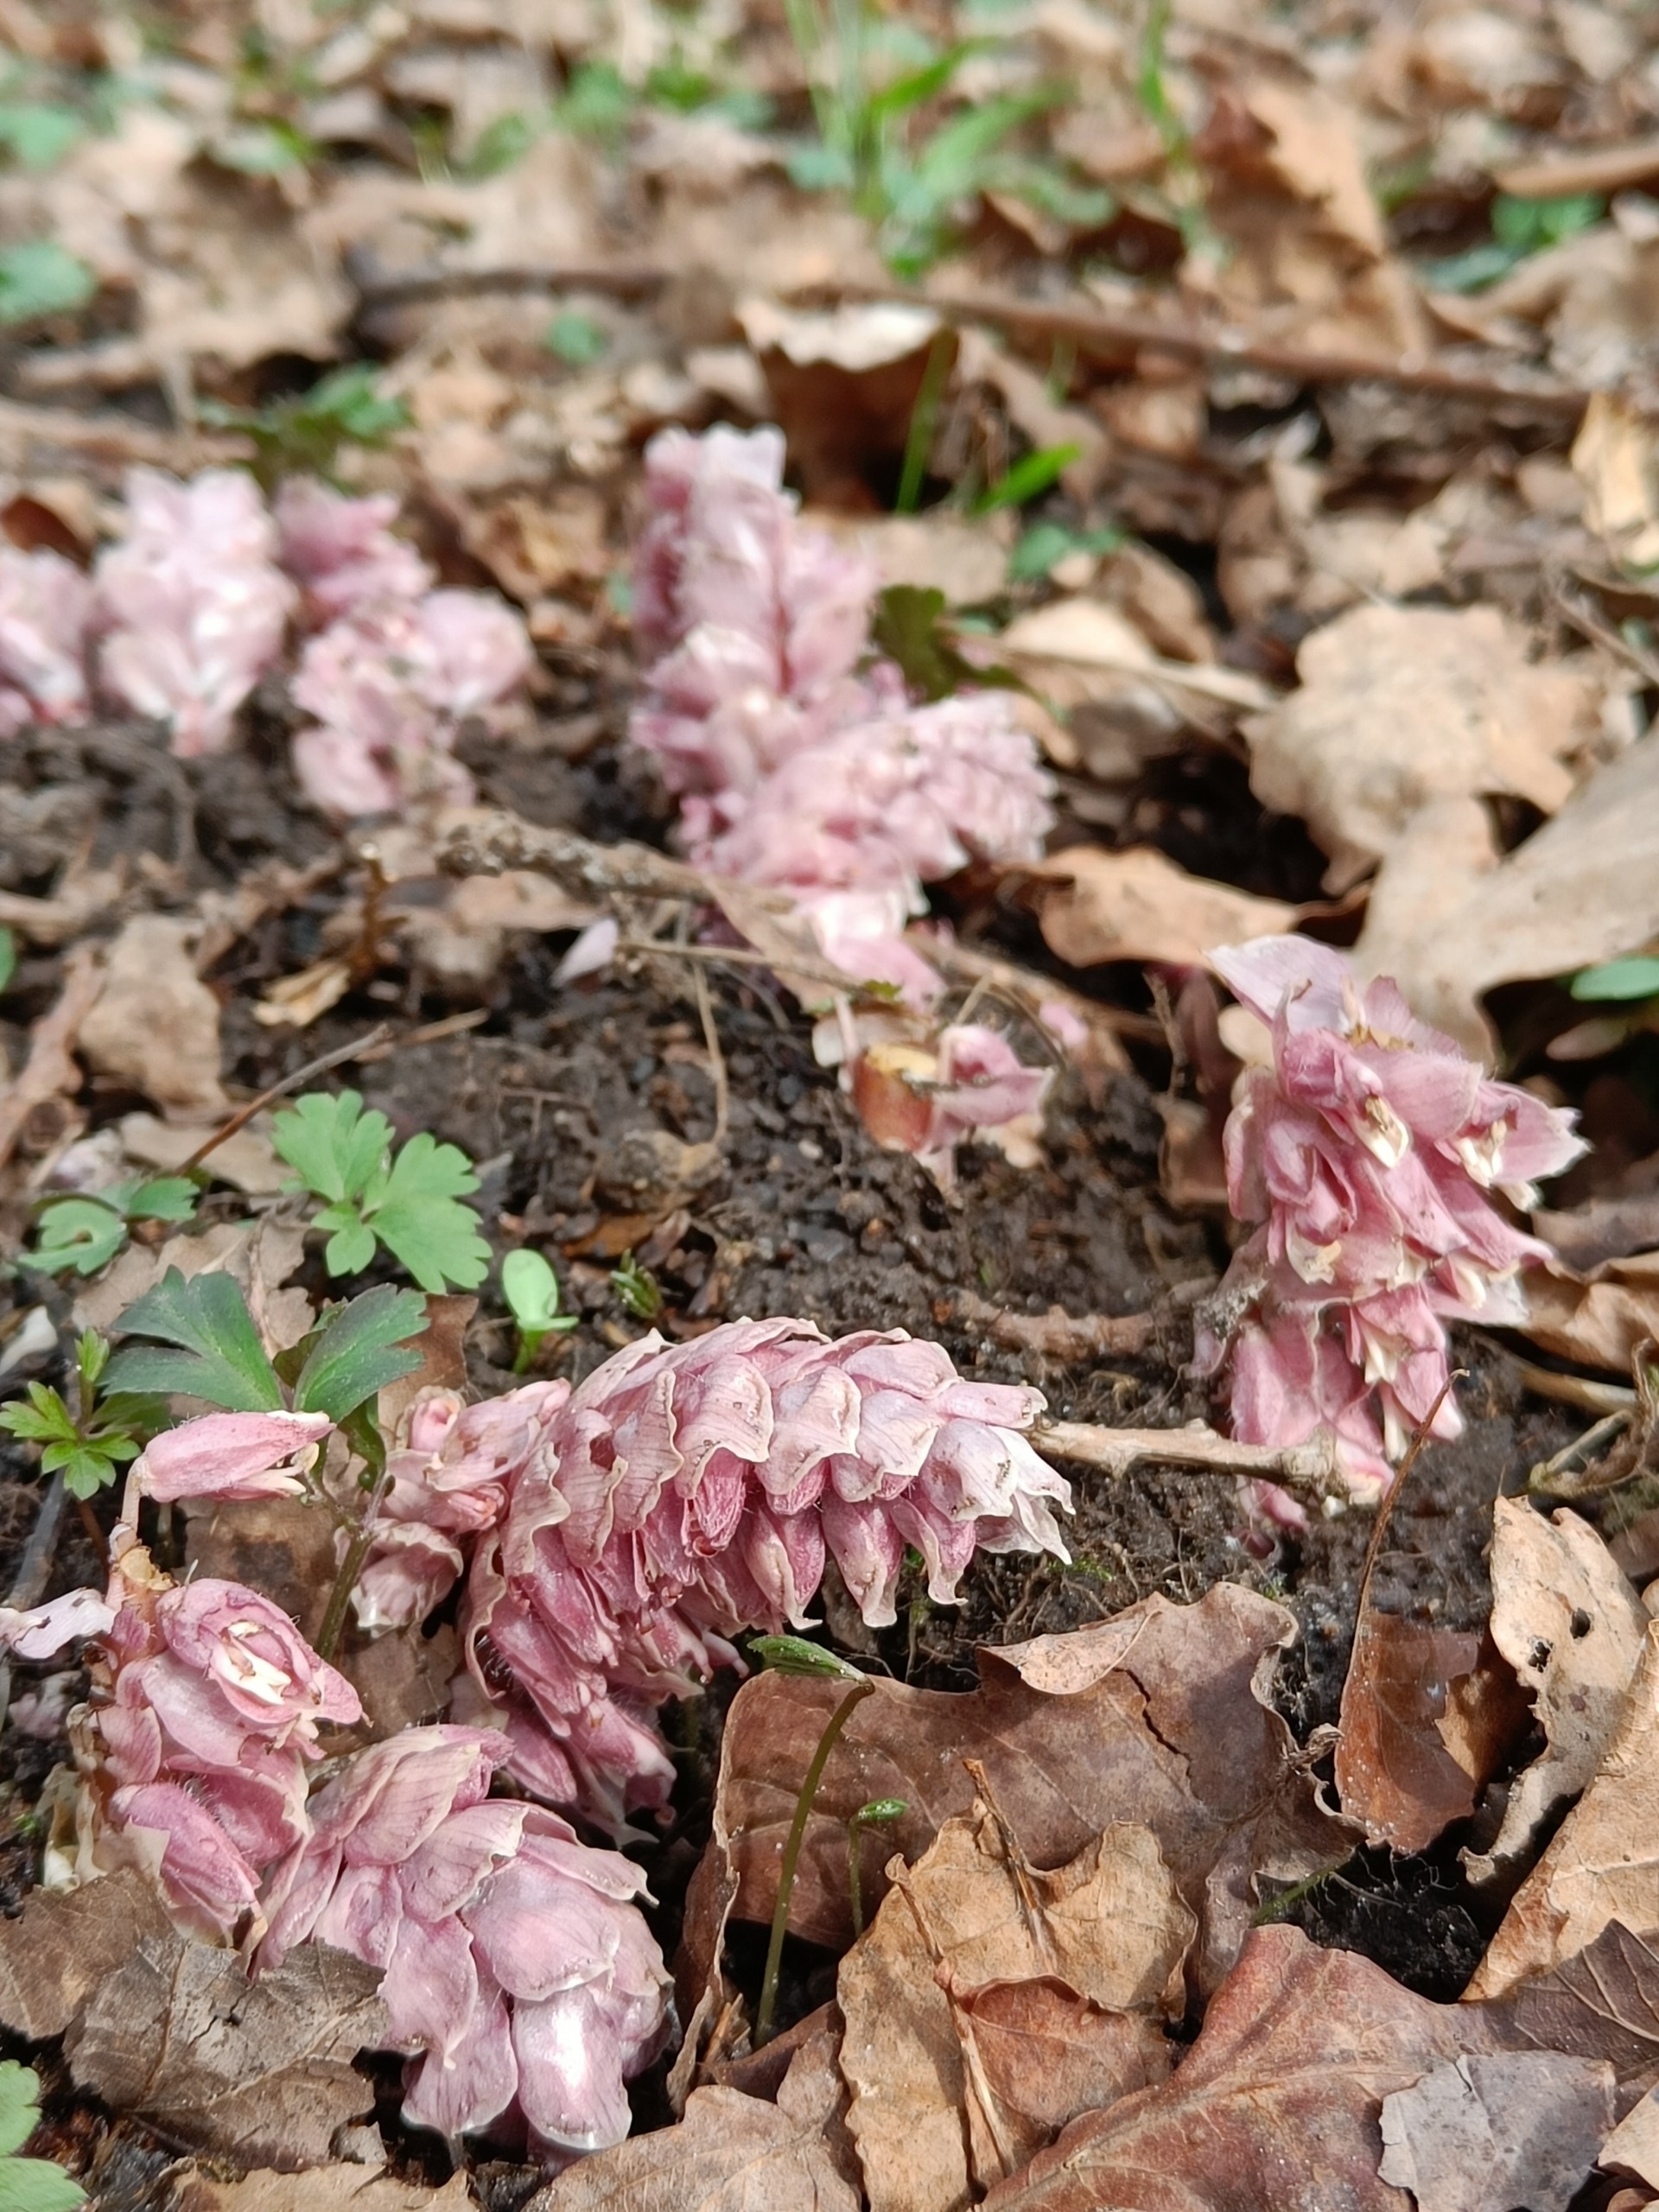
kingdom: Plantae
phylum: Tracheophyta
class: Magnoliopsida
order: Lamiales
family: Orobanchaceae
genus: Lathraea
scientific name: Lathraea squamaria
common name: Skælrod
